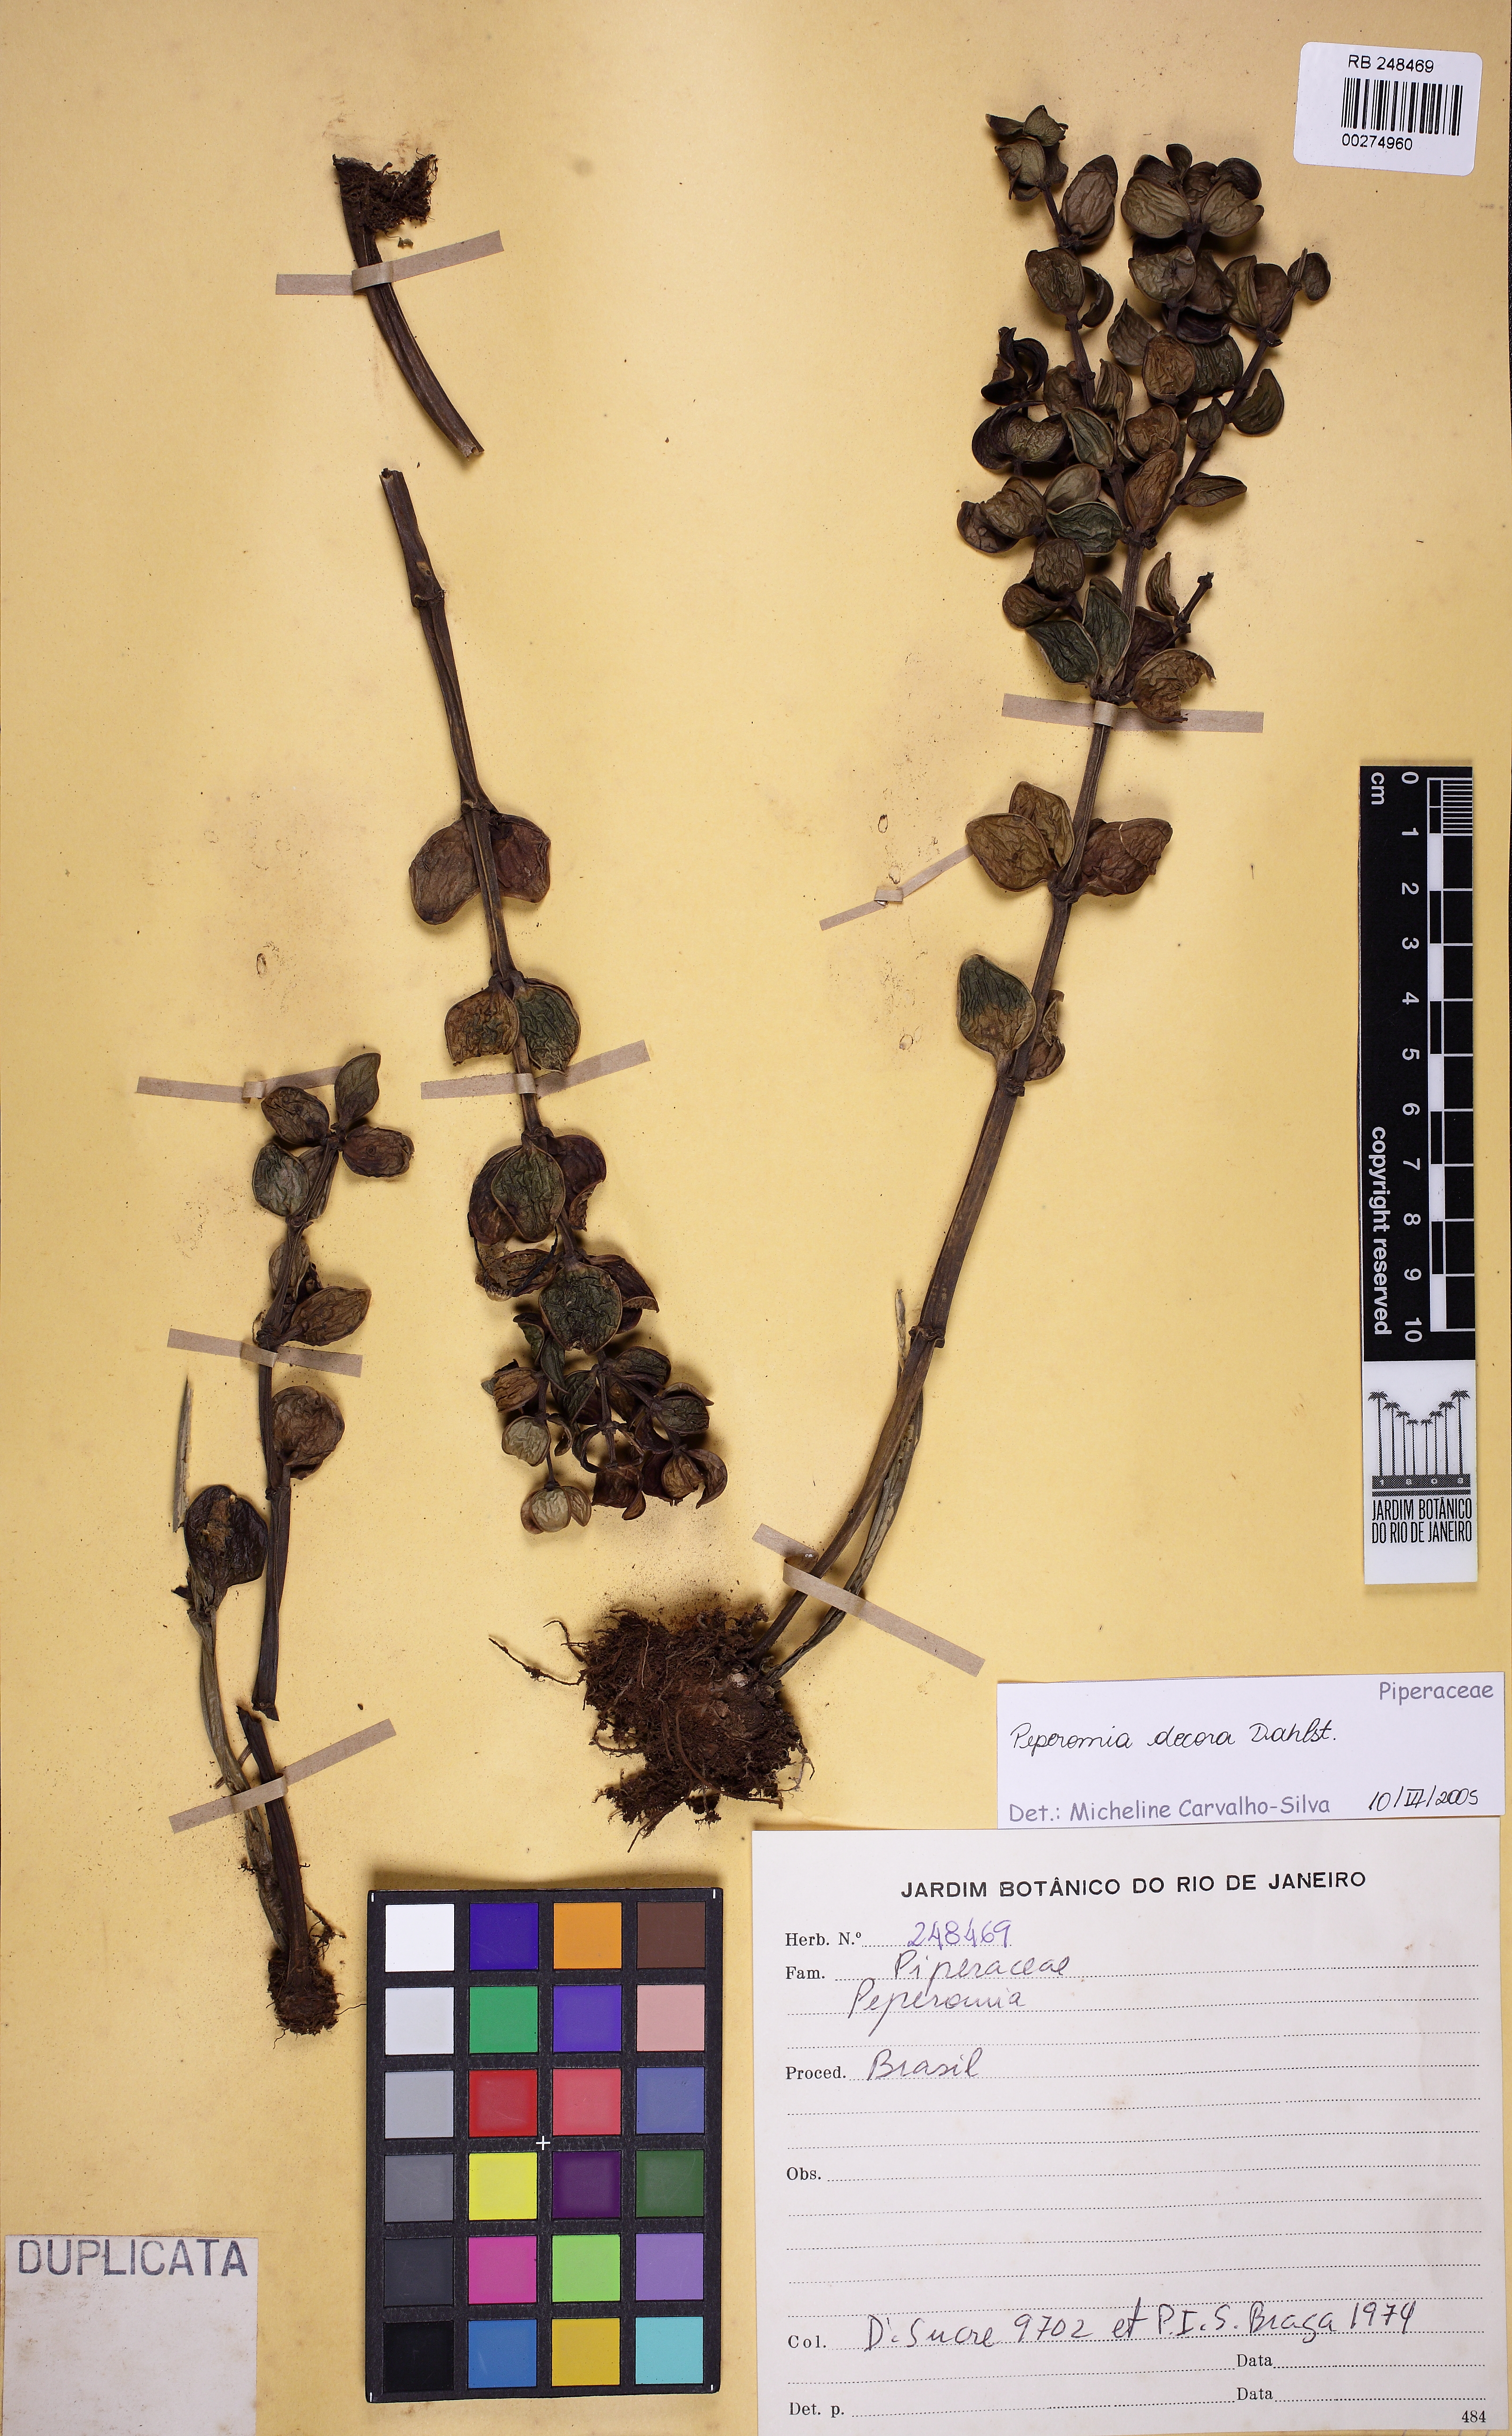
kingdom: Plantae
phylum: Tracheophyta
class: Magnoliopsida
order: Piperales
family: Piperaceae
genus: Peperomia
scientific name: Peperomia decora
